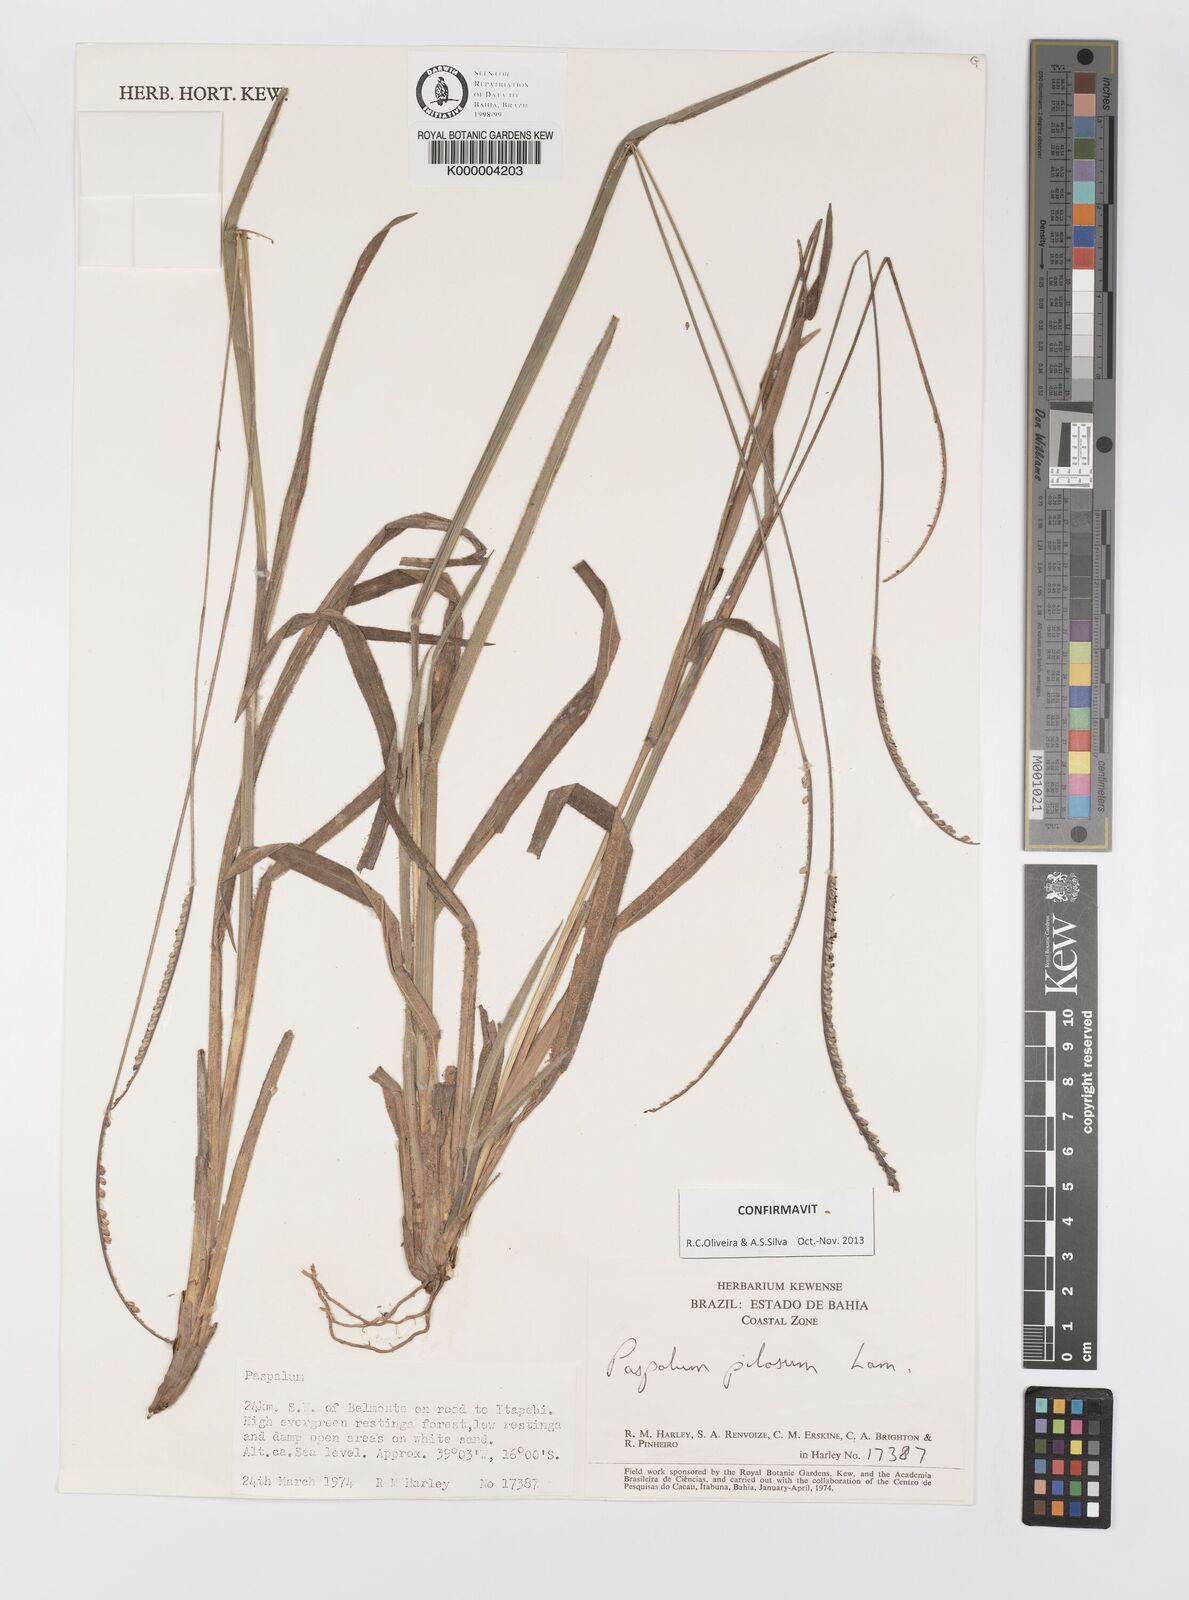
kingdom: Plantae
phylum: Tracheophyta
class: Liliopsida
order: Poales
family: Poaceae
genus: Paspalum
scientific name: Paspalum pilosum
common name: Crowngrass
